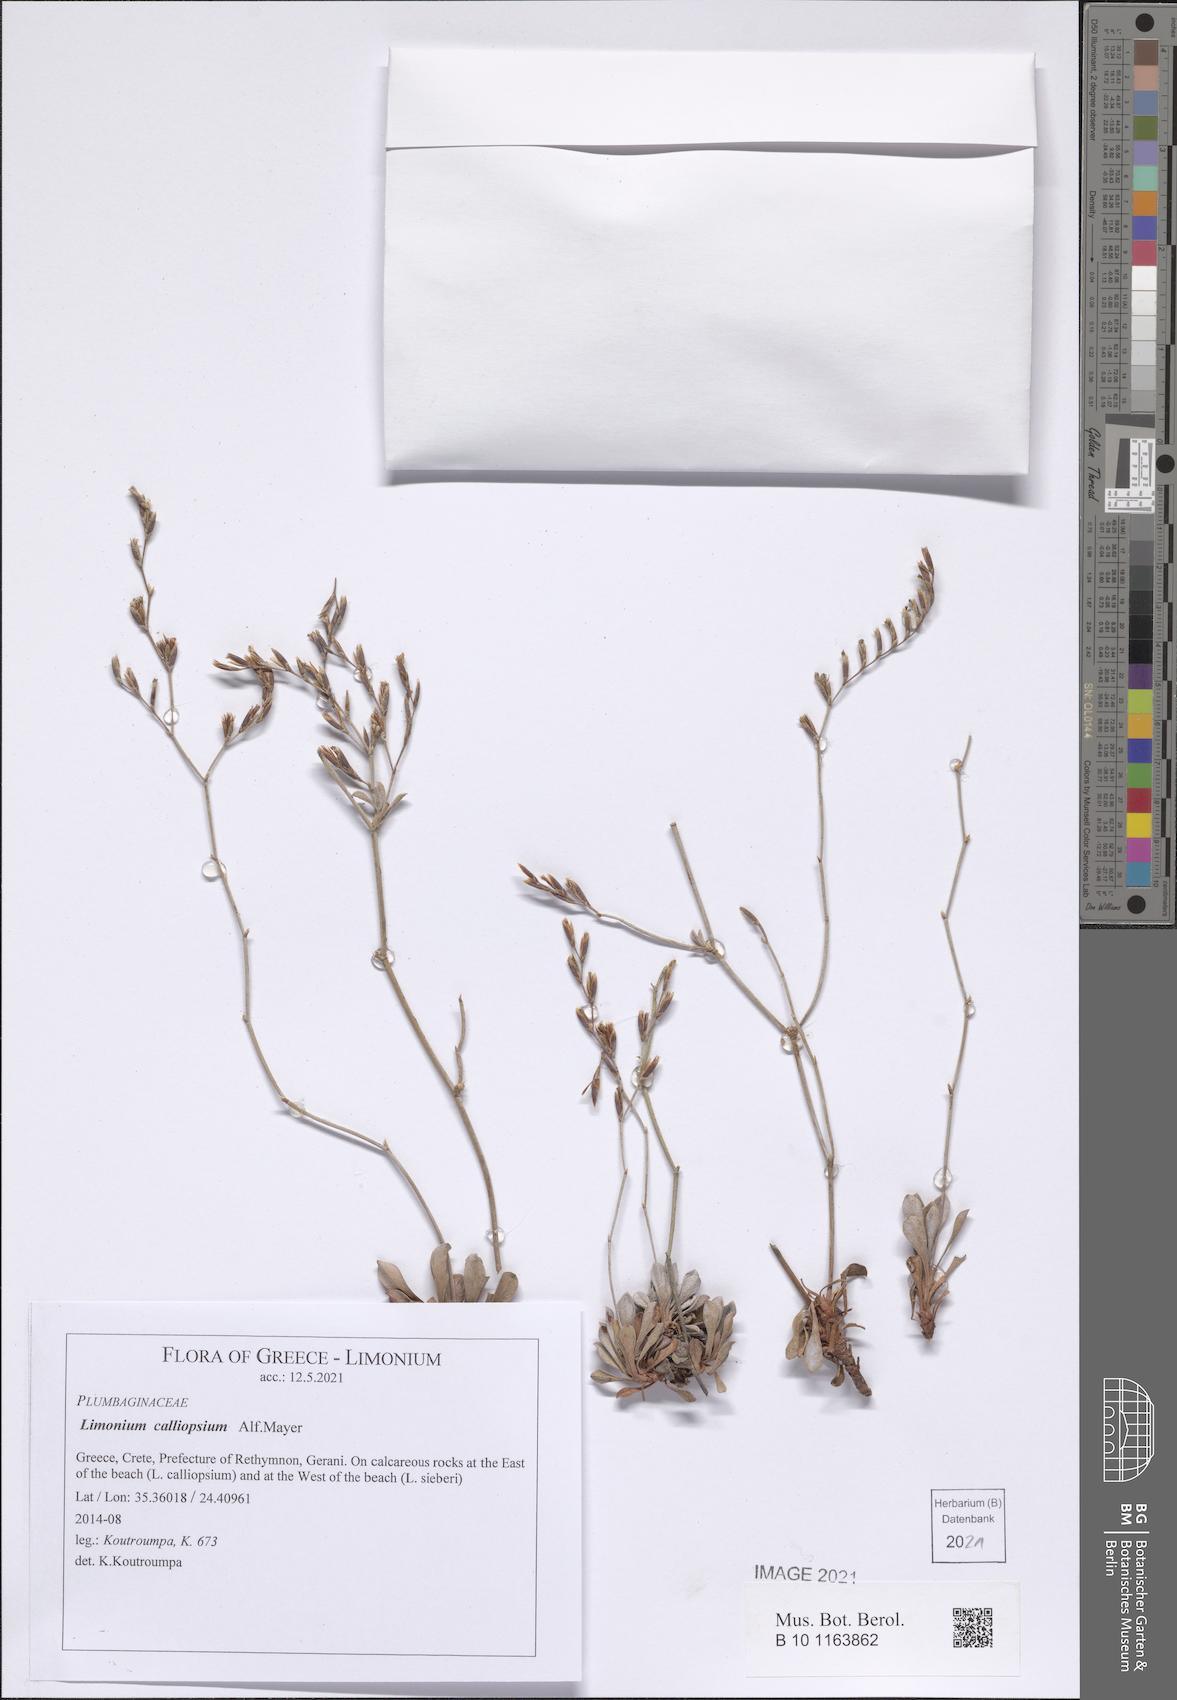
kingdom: Plantae
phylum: Tracheophyta
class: Magnoliopsida
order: Caryophyllales
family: Plumbaginaceae
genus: Limonium
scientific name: Limonium calliopsium
